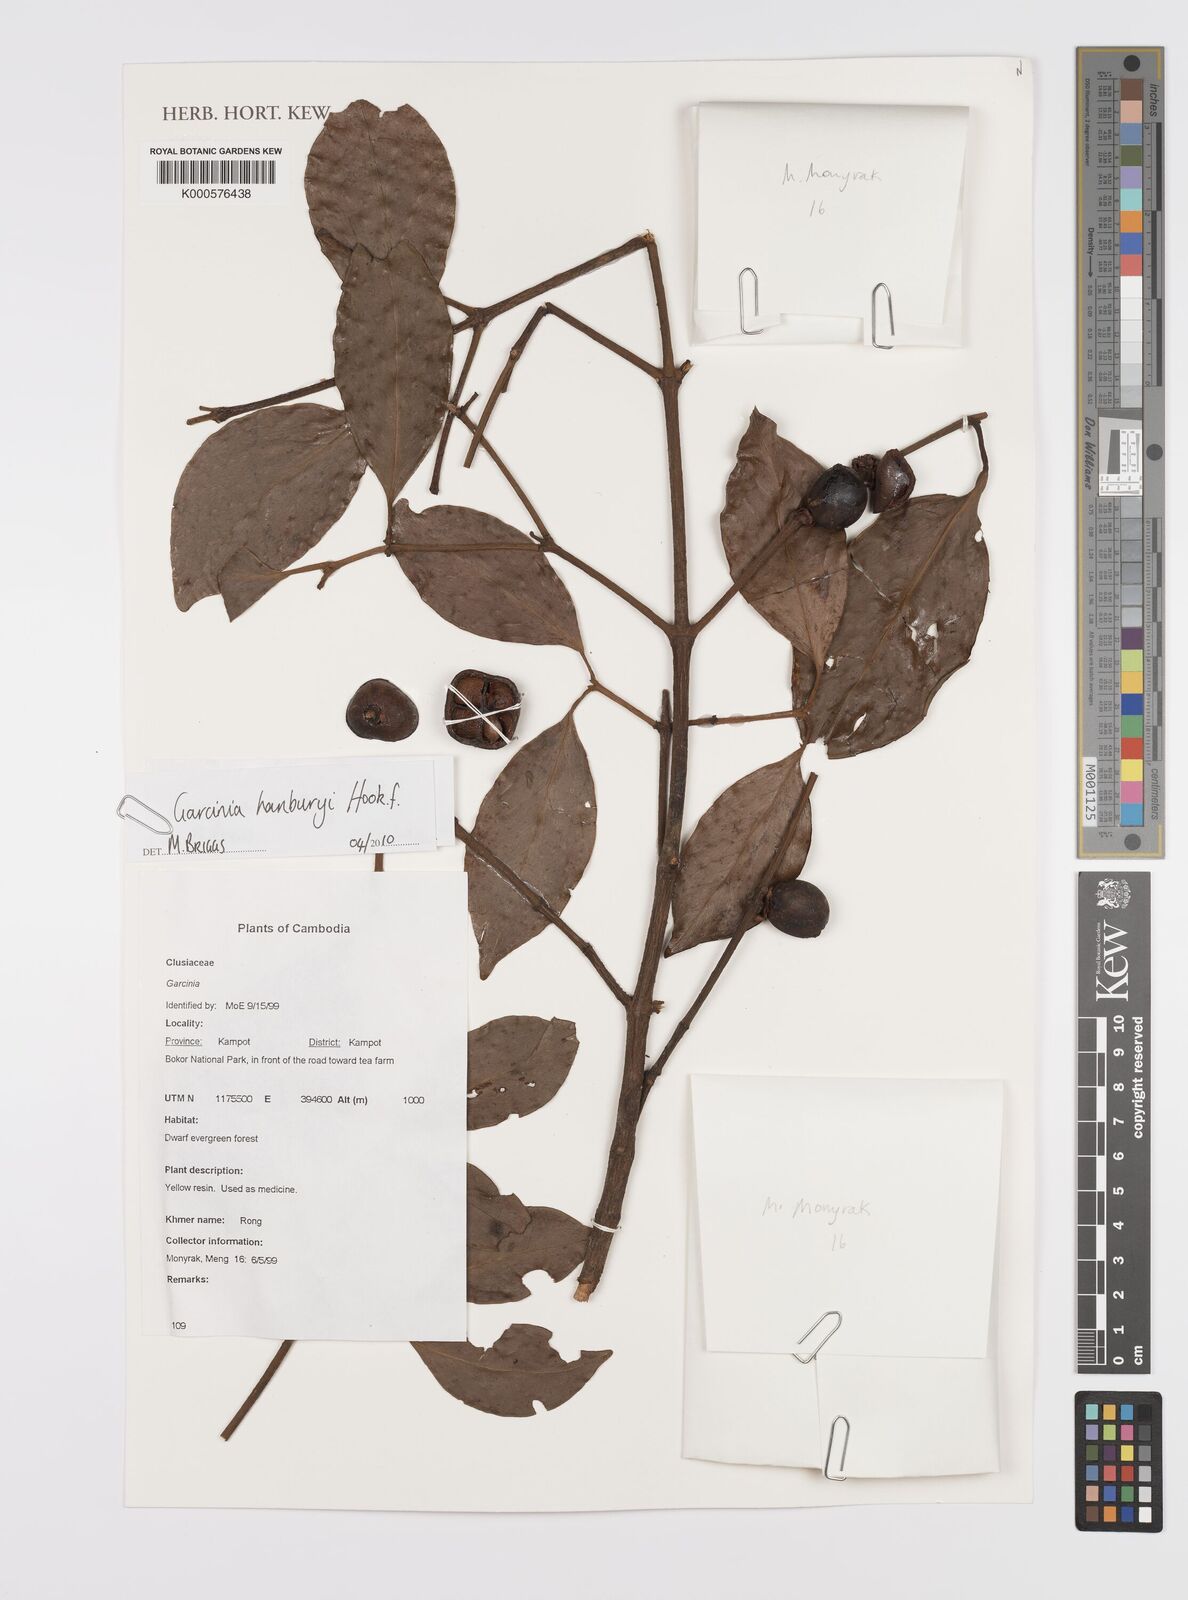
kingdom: Plantae
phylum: Tracheophyta
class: Magnoliopsida
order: Malpighiales
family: Clusiaceae
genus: Garcinia
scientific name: Garcinia hanburyi
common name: Siam gamboge
